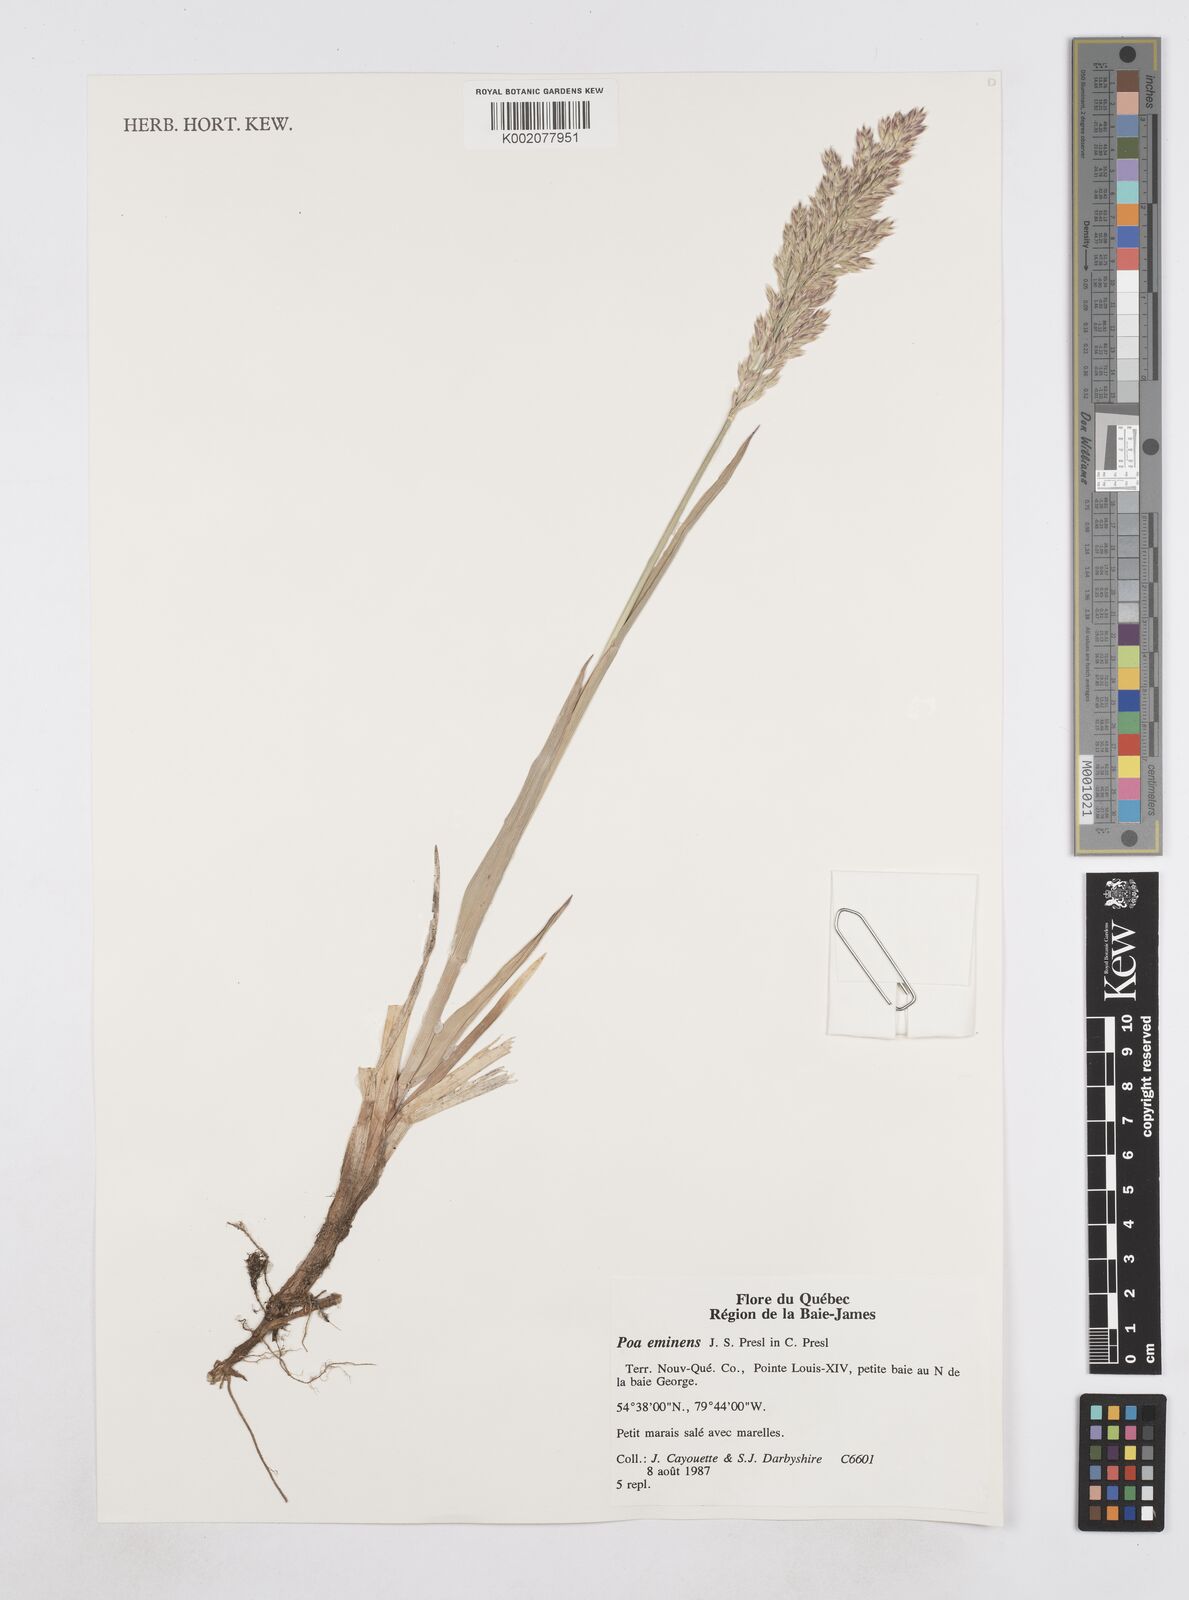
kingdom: Plantae
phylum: Tracheophyta
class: Liliopsida
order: Poales
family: Poaceae
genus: Arctopoa
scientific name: Arctopoa eminens
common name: Eminent bluegrass
